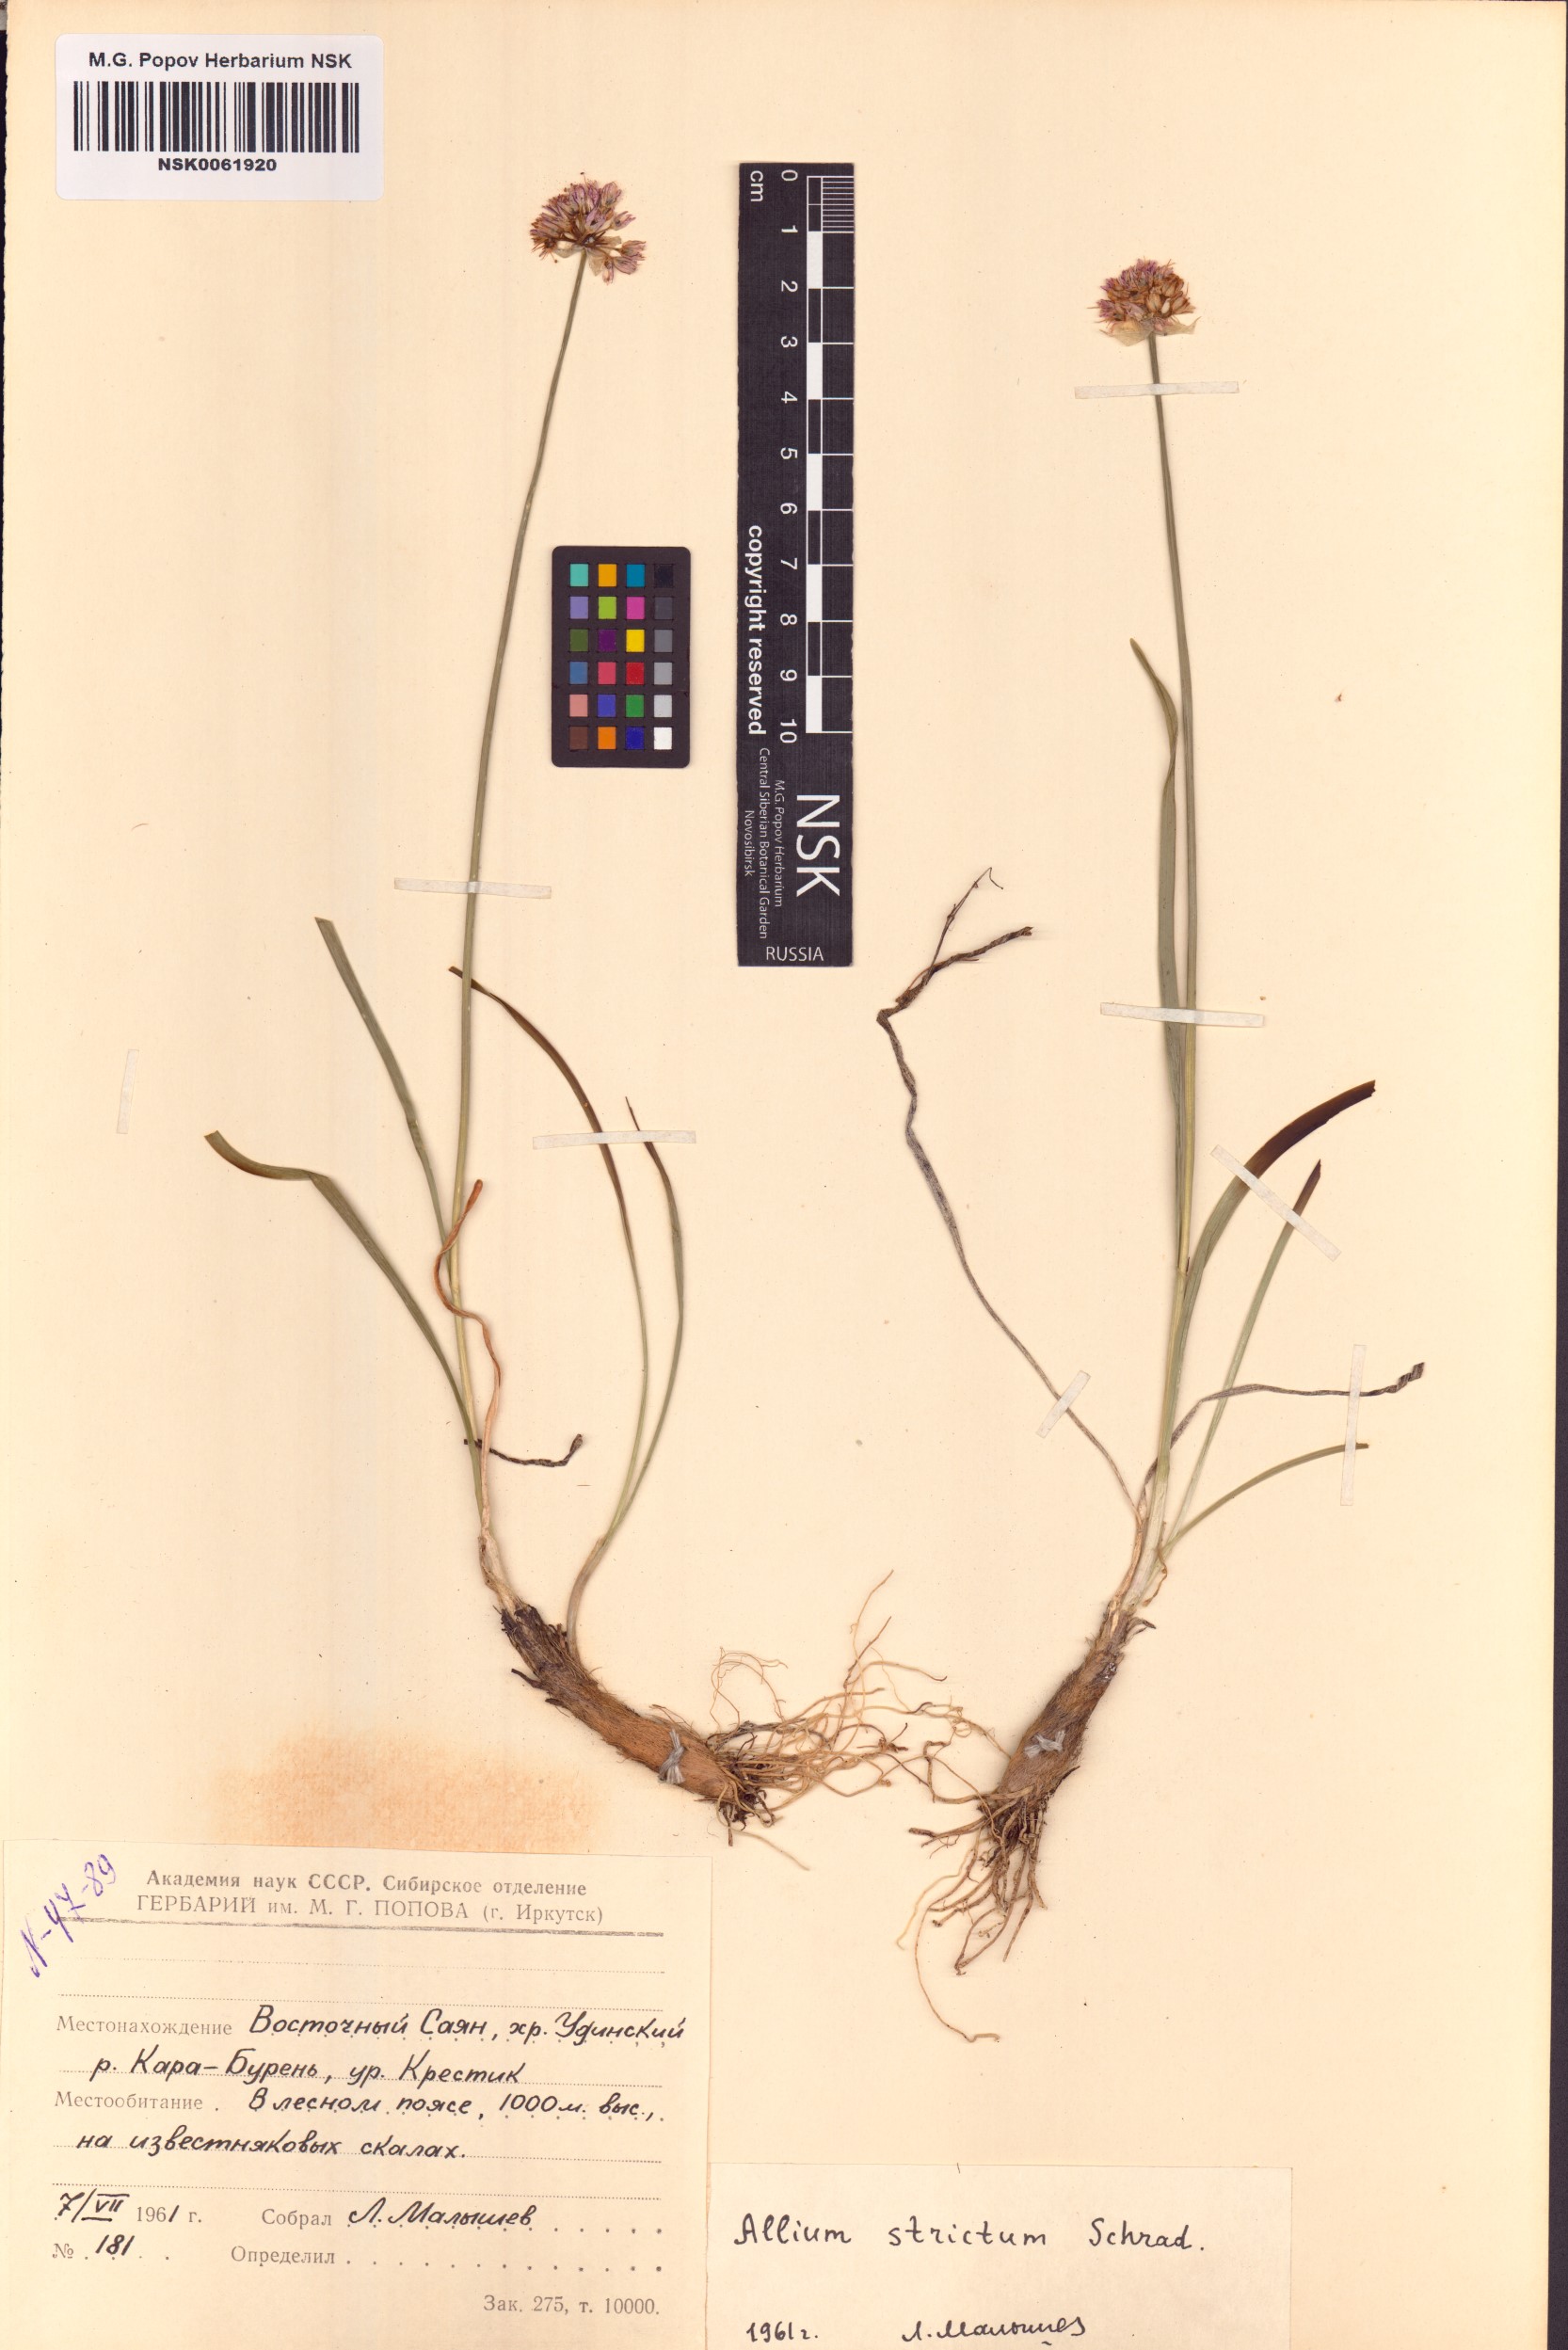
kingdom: Plantae
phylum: Tracheophyta
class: Liliopsida
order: Asparagales
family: Amaryllidaceae
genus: Allium
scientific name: Allium strictum
